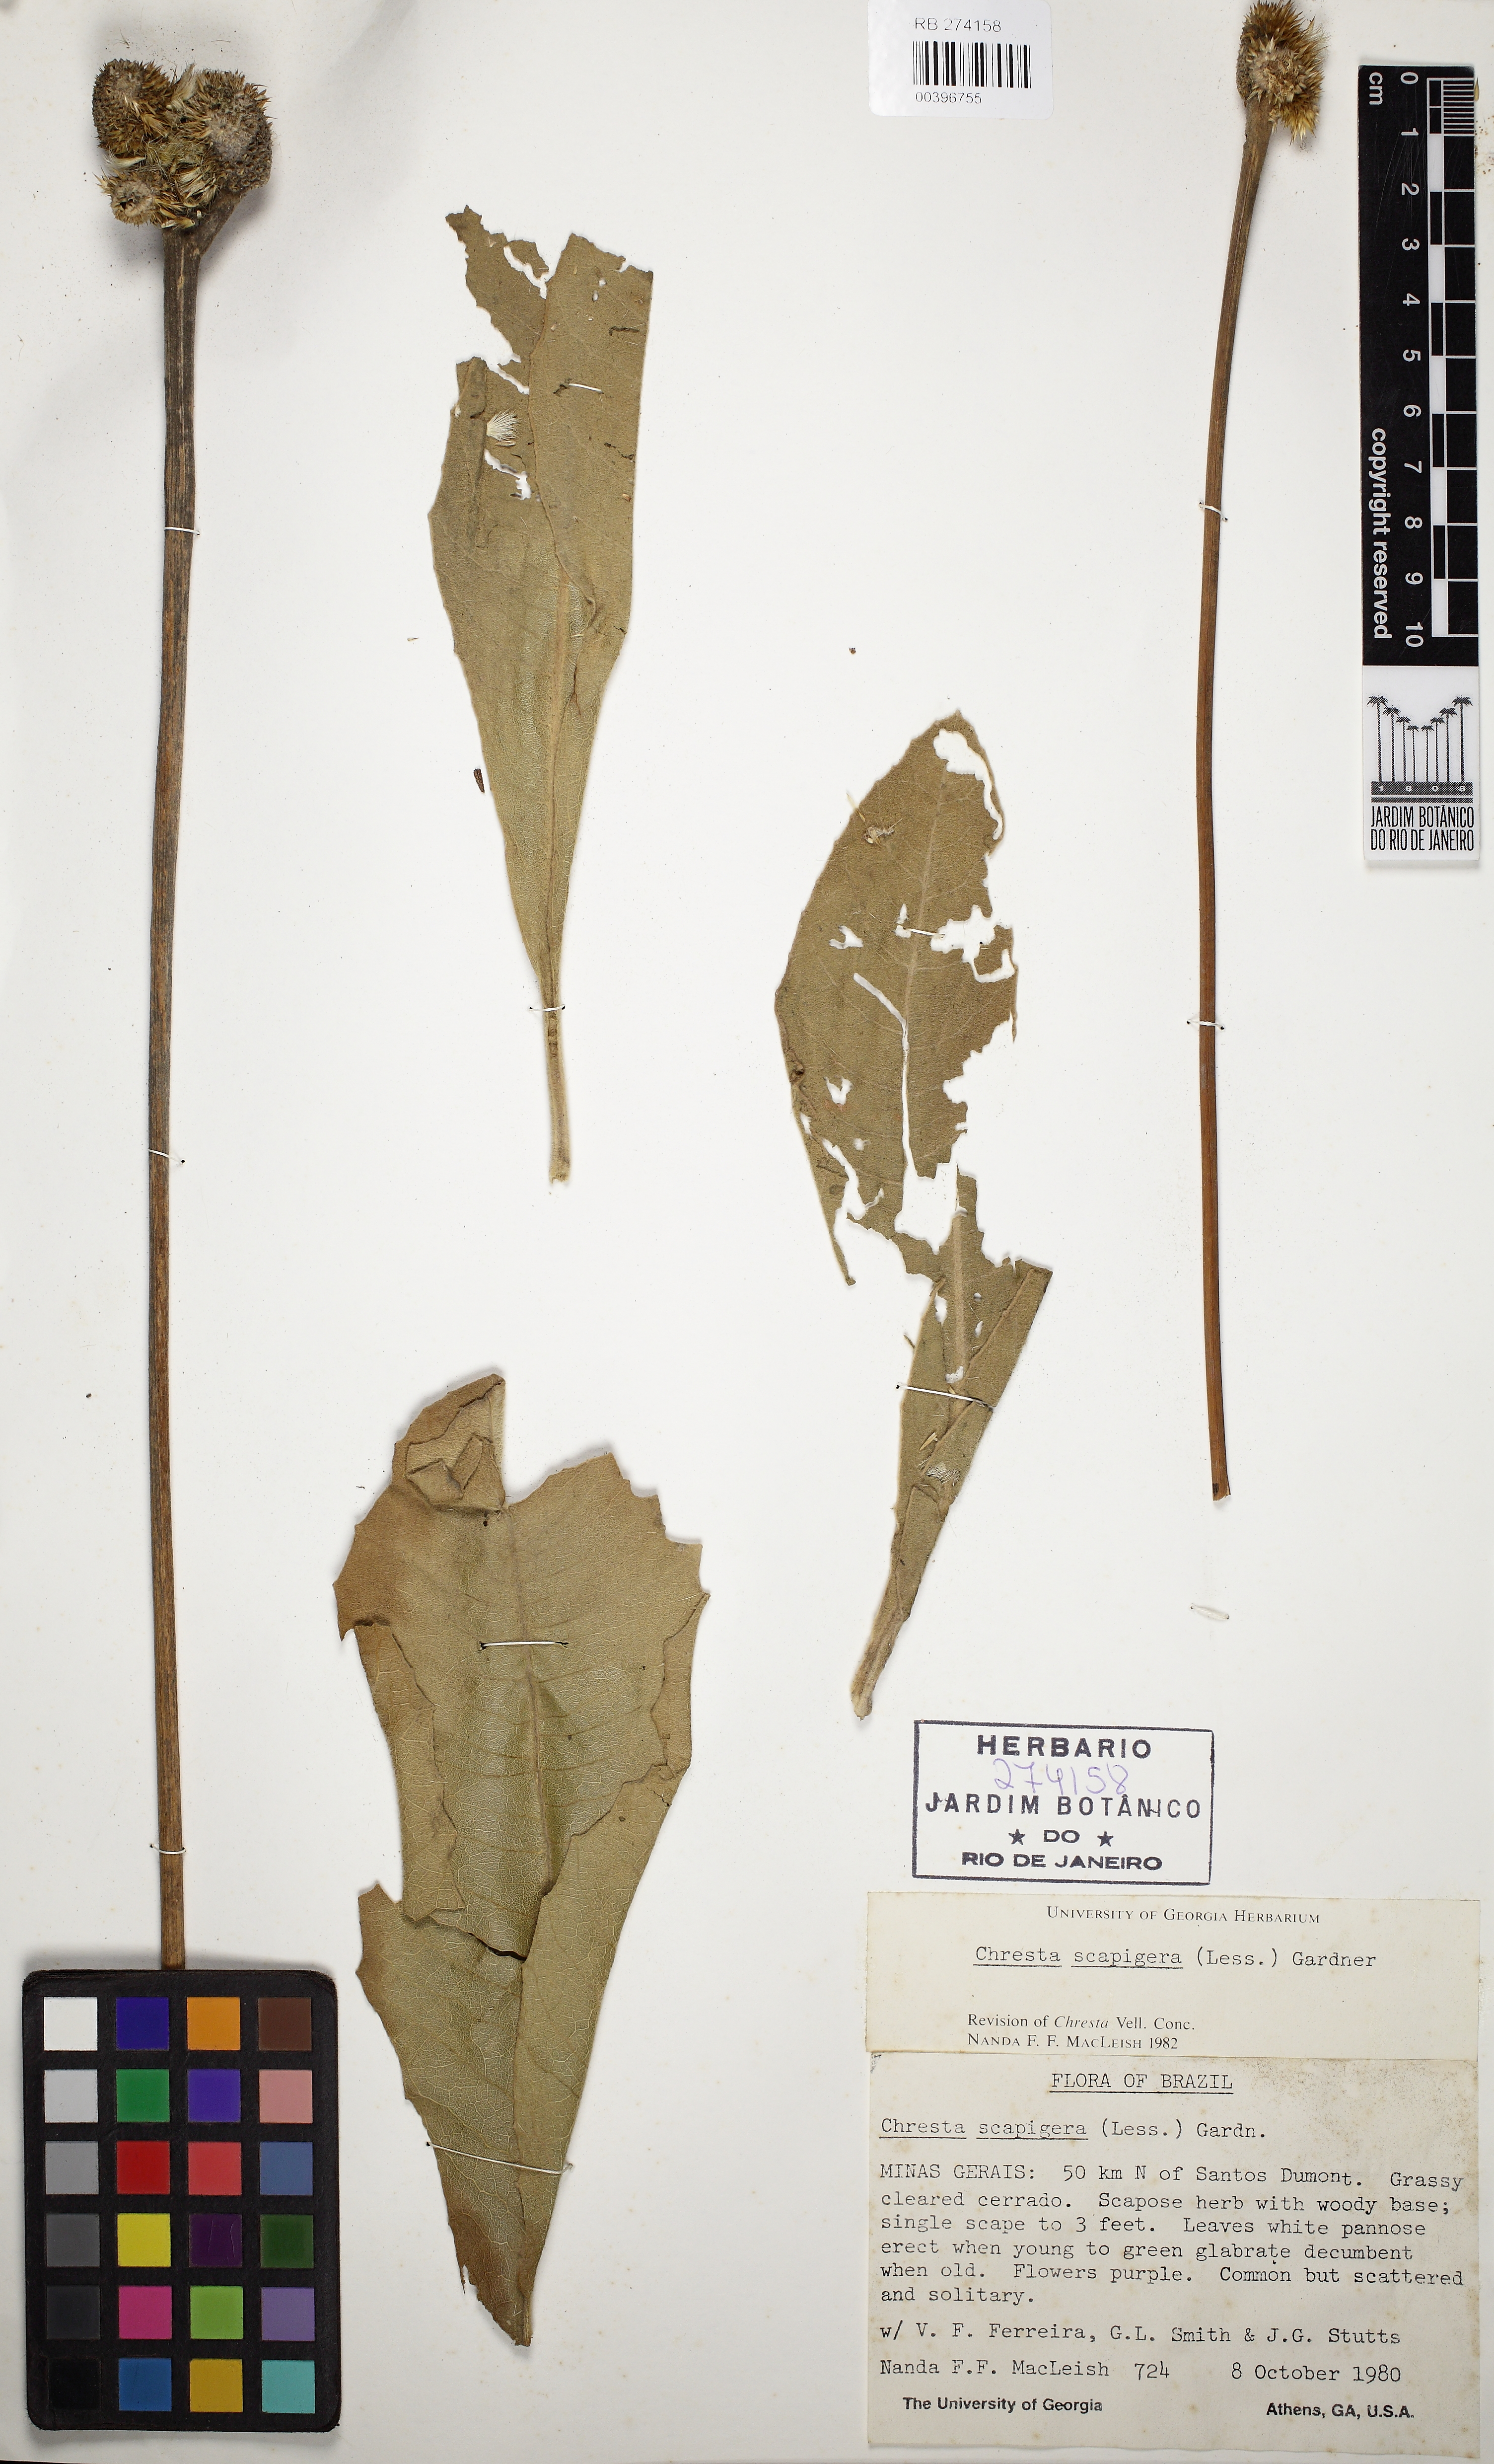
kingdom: Plantae
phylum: Tracheophyta
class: Magnoliopsida
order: Asterales
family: Asteraceae
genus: Chresta
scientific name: Chresta scapigera
